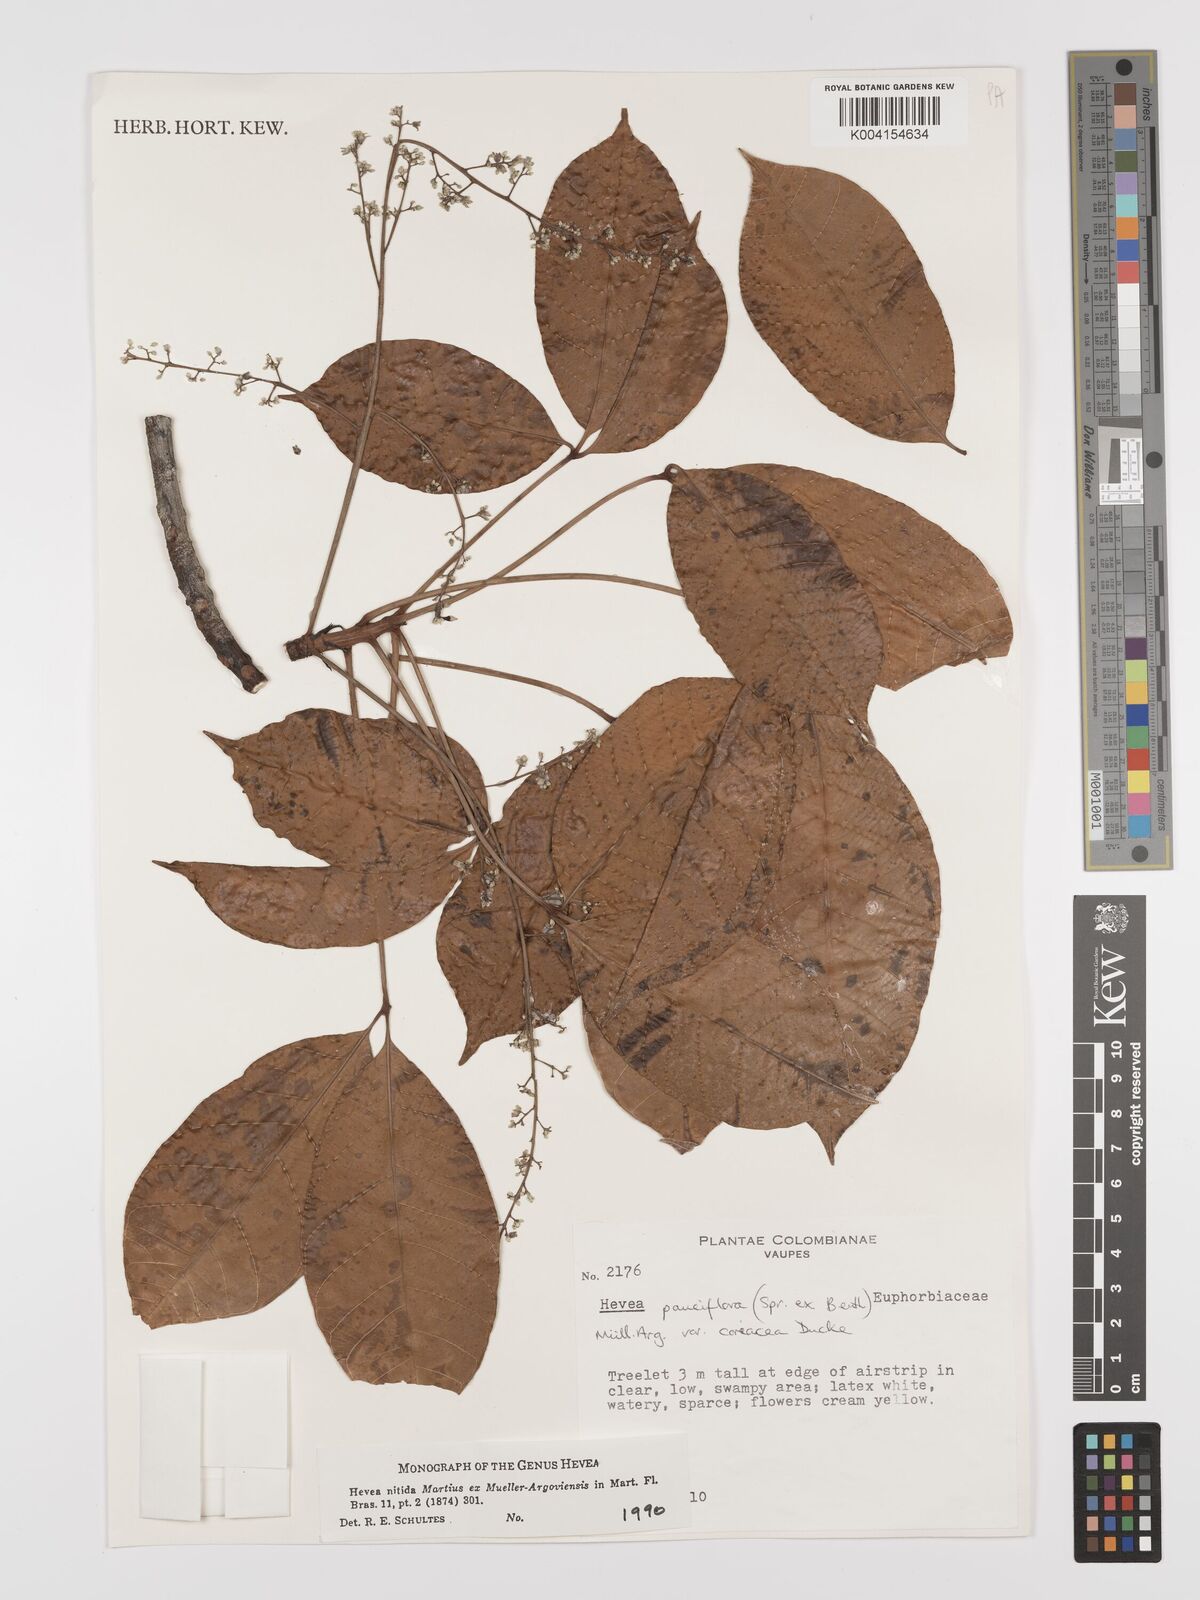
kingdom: Plantae
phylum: Tracheophyta
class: Magnoliopsida
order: Malpighiales
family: Euphorbiaceae
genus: Hevea
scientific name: Hevea nitida
